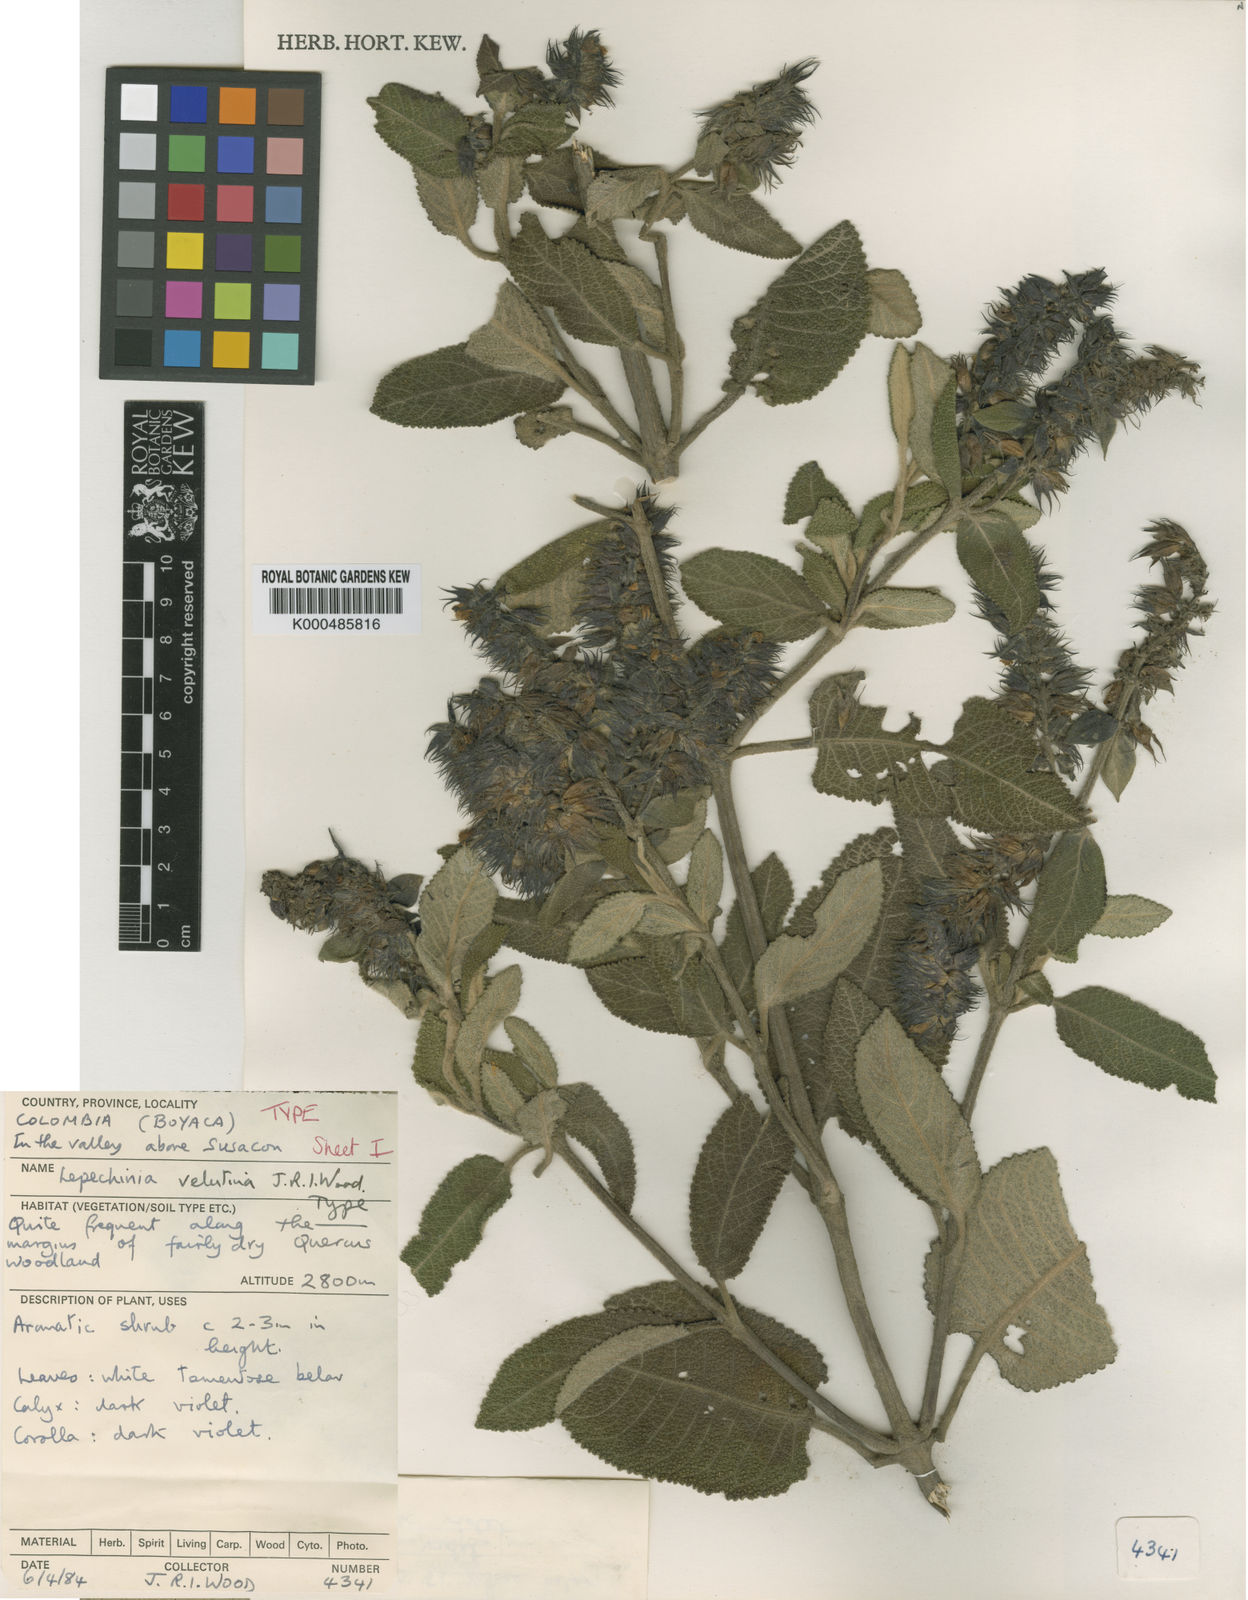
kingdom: Plantae
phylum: Tracheophyta
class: Magnoliopsida
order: Lamiales
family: Lamiaceae
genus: Lepechinia
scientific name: Lepechinia velutina
